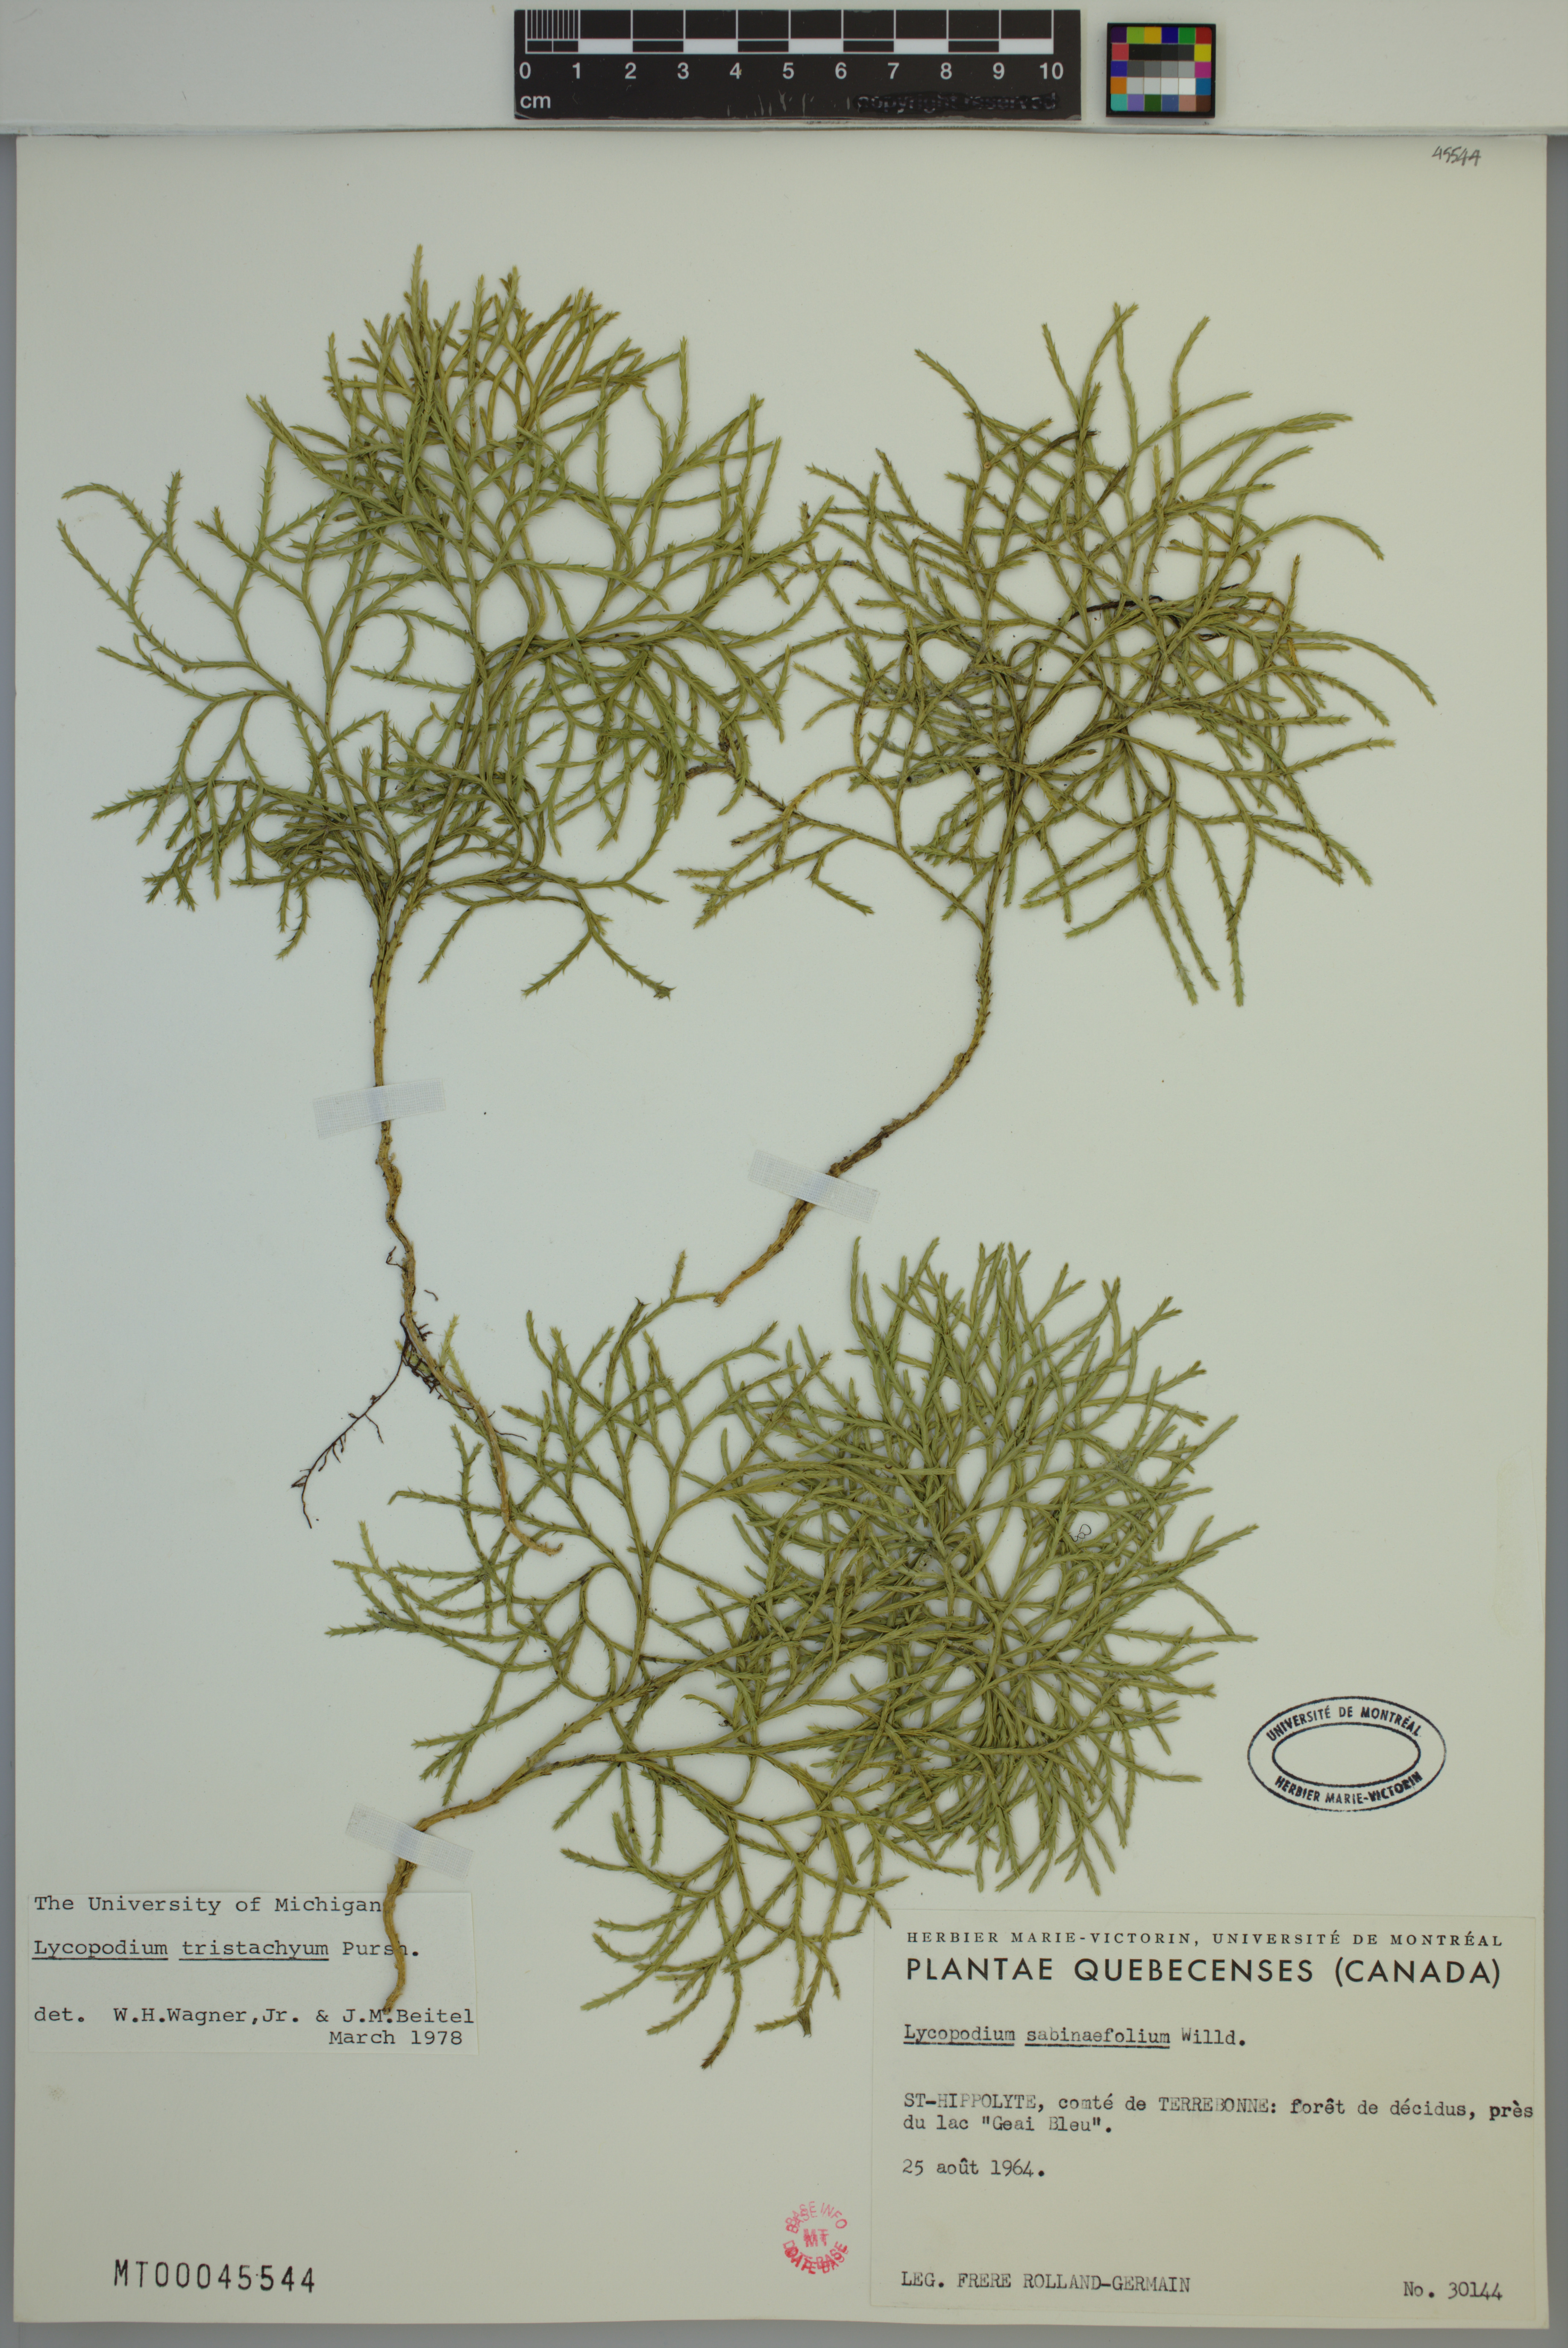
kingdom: Plantae
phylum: Tracheophyta
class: Lycopodiopsida
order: Lycopodiales
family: Lycopodiaceae
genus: Diphasiastrum
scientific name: Diphasiastrum tristachyum
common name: Blue ground-cedar
